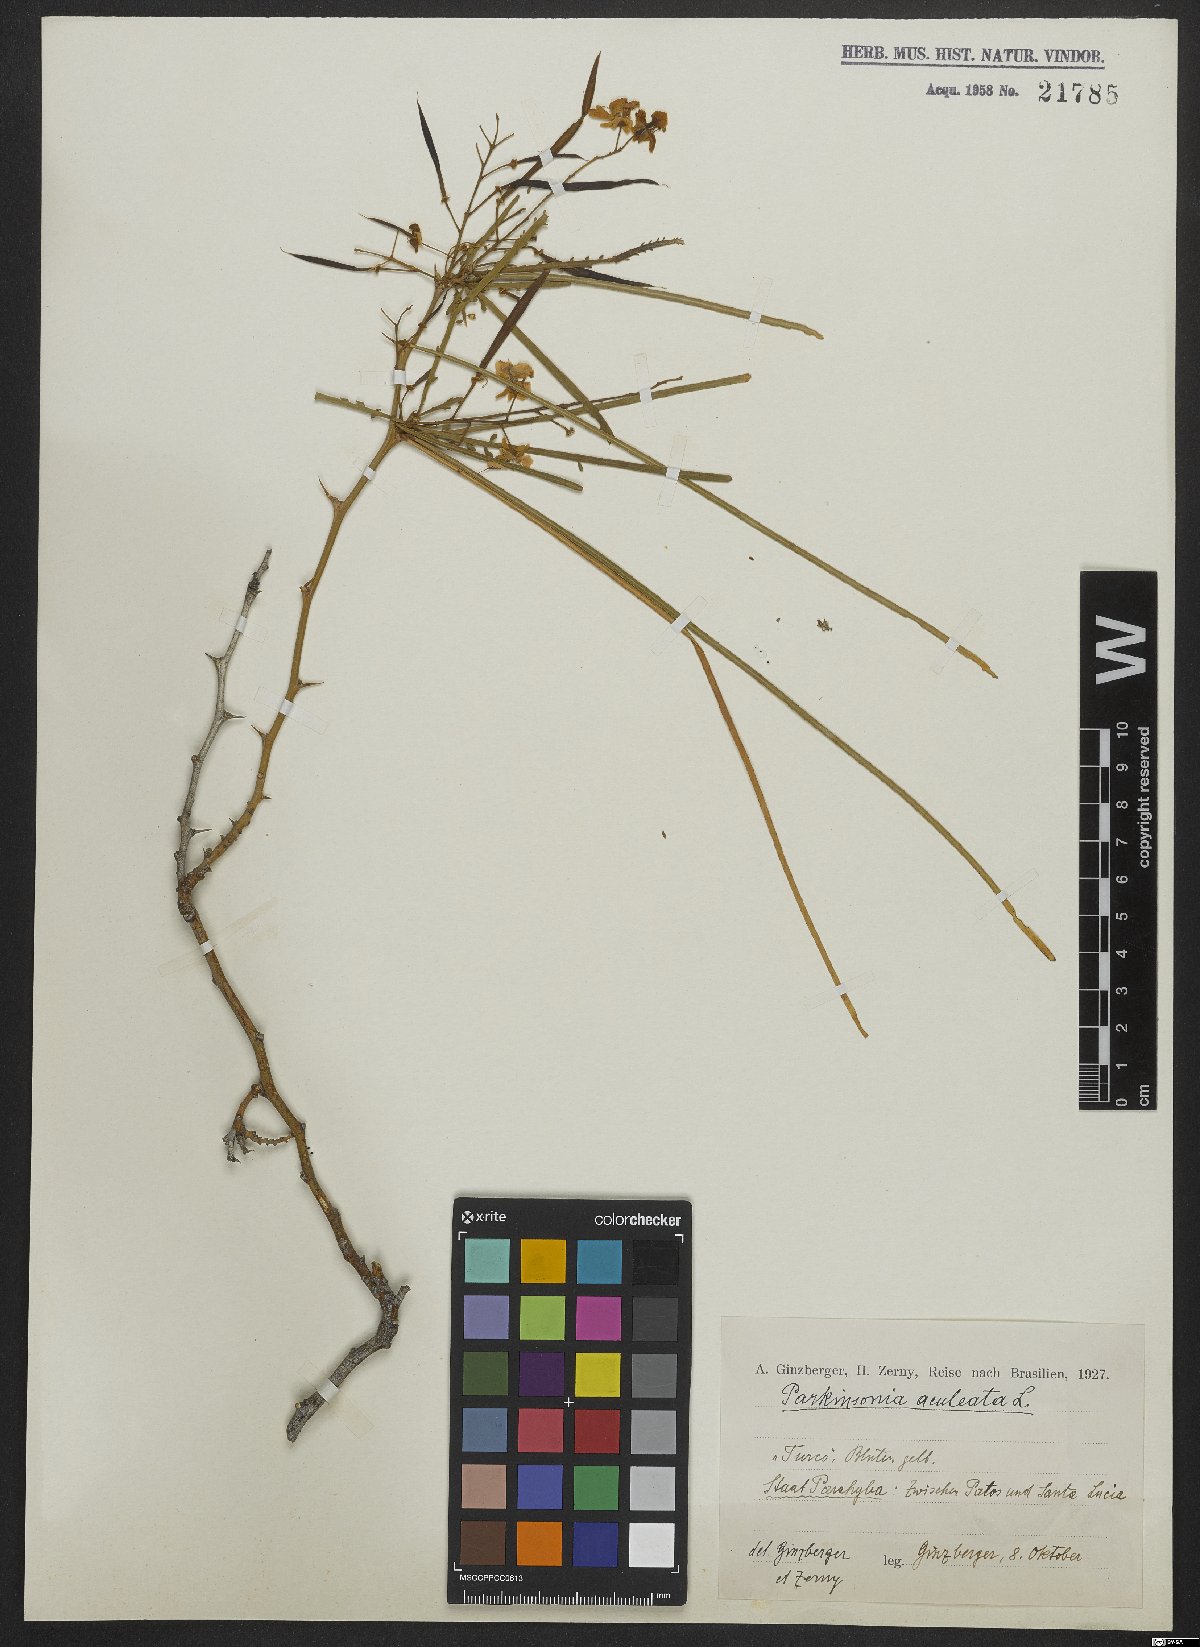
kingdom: Plantae
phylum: Tracheophyta
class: Magnoliopsida
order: Fabales
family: Fabaceae
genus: Parkinsonia
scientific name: Parkinsonia aculeata
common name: Jerusalem thorn
